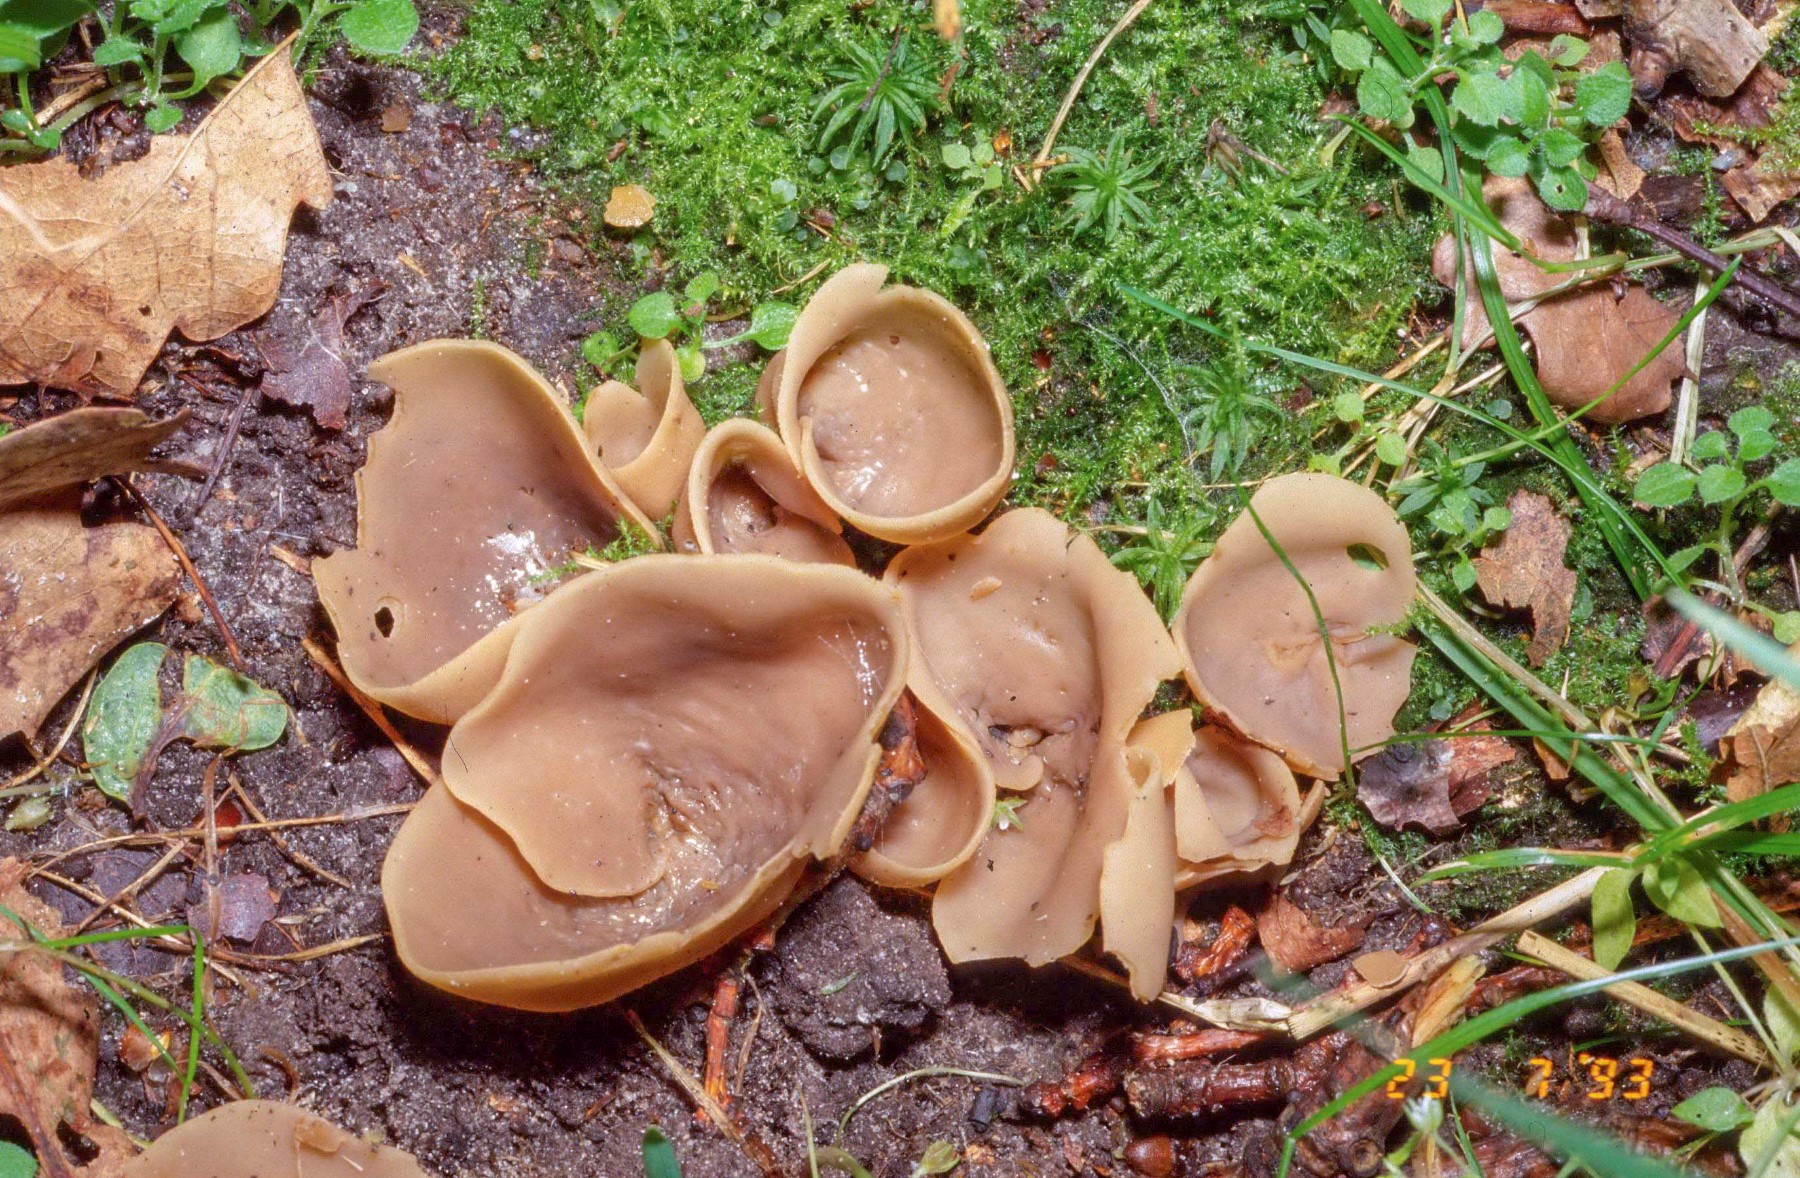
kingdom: Fungi
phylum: Ascomycota
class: Pezizomycetes
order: Pezizales
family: Otideaceae
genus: Otidea
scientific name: Otidea alutacea
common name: læder-ørebæger
